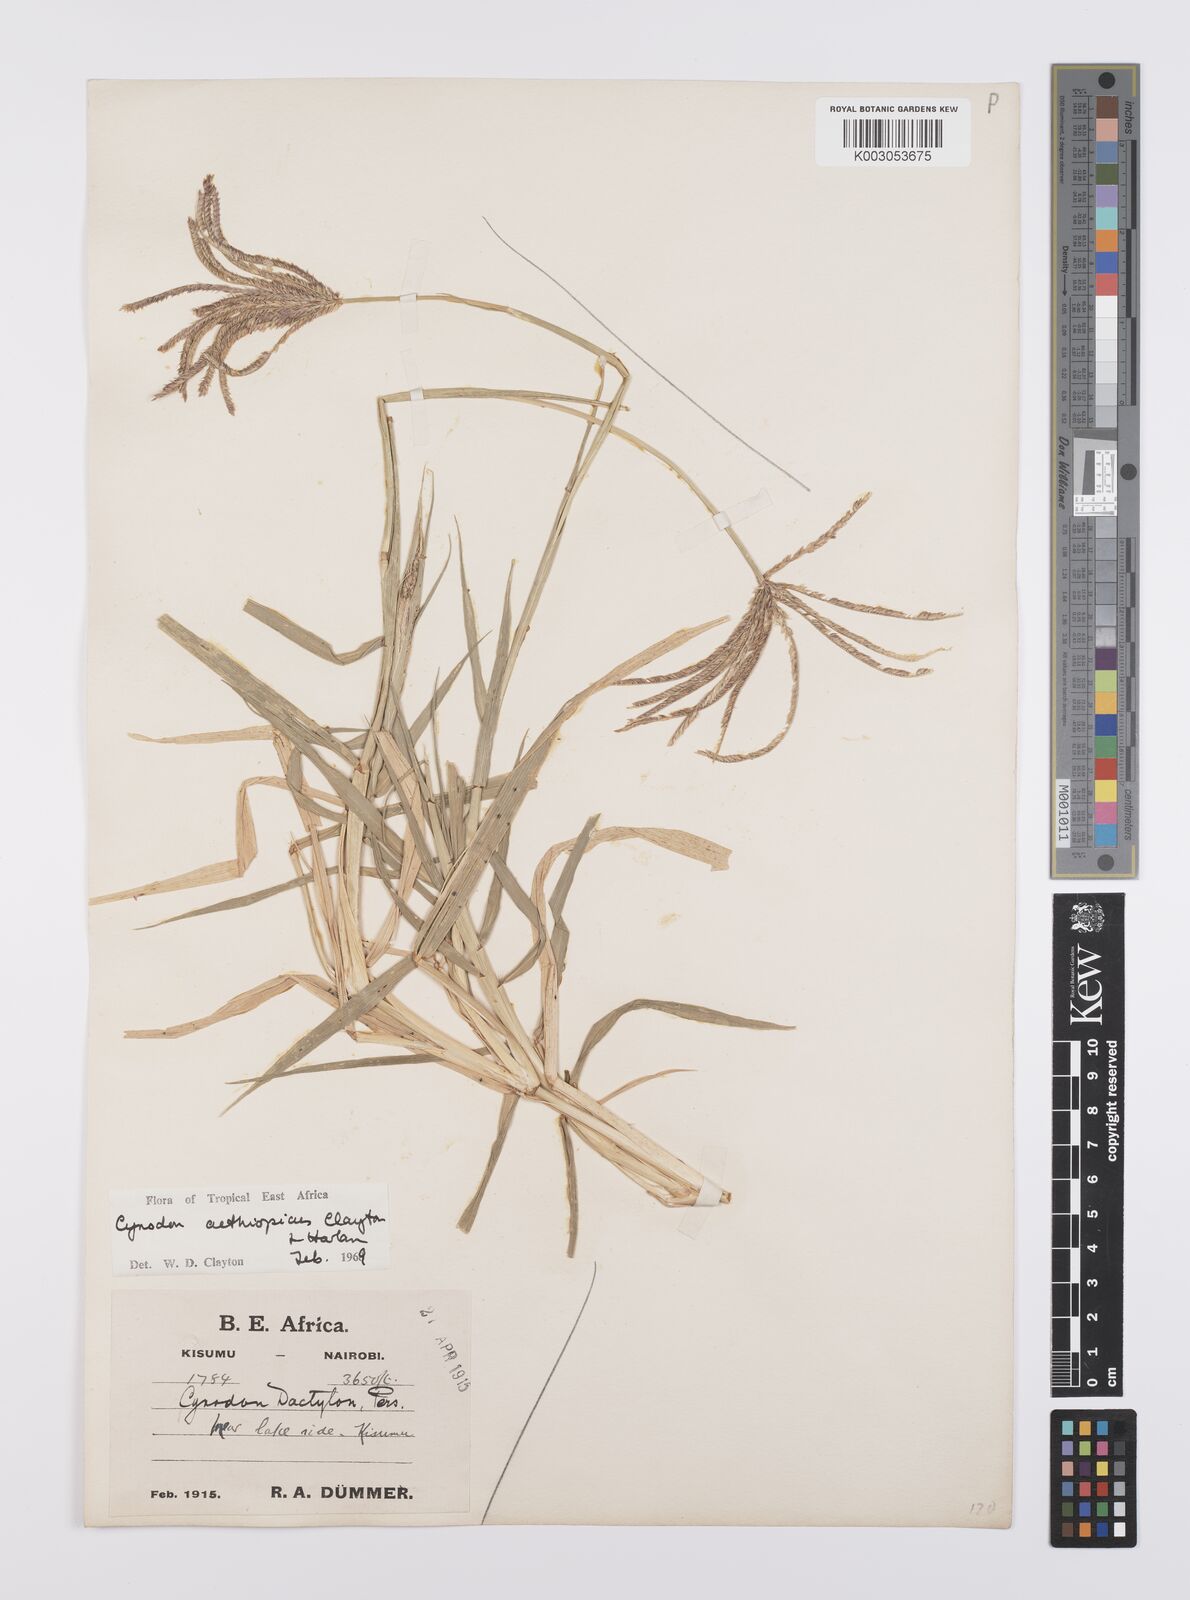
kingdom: Plantae
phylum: Tracheophyta
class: Liliopsida
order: Poales
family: Poaceae
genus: Cynodon
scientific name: Cynodon aethiopicus
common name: Ethiopian dogstooth grass
